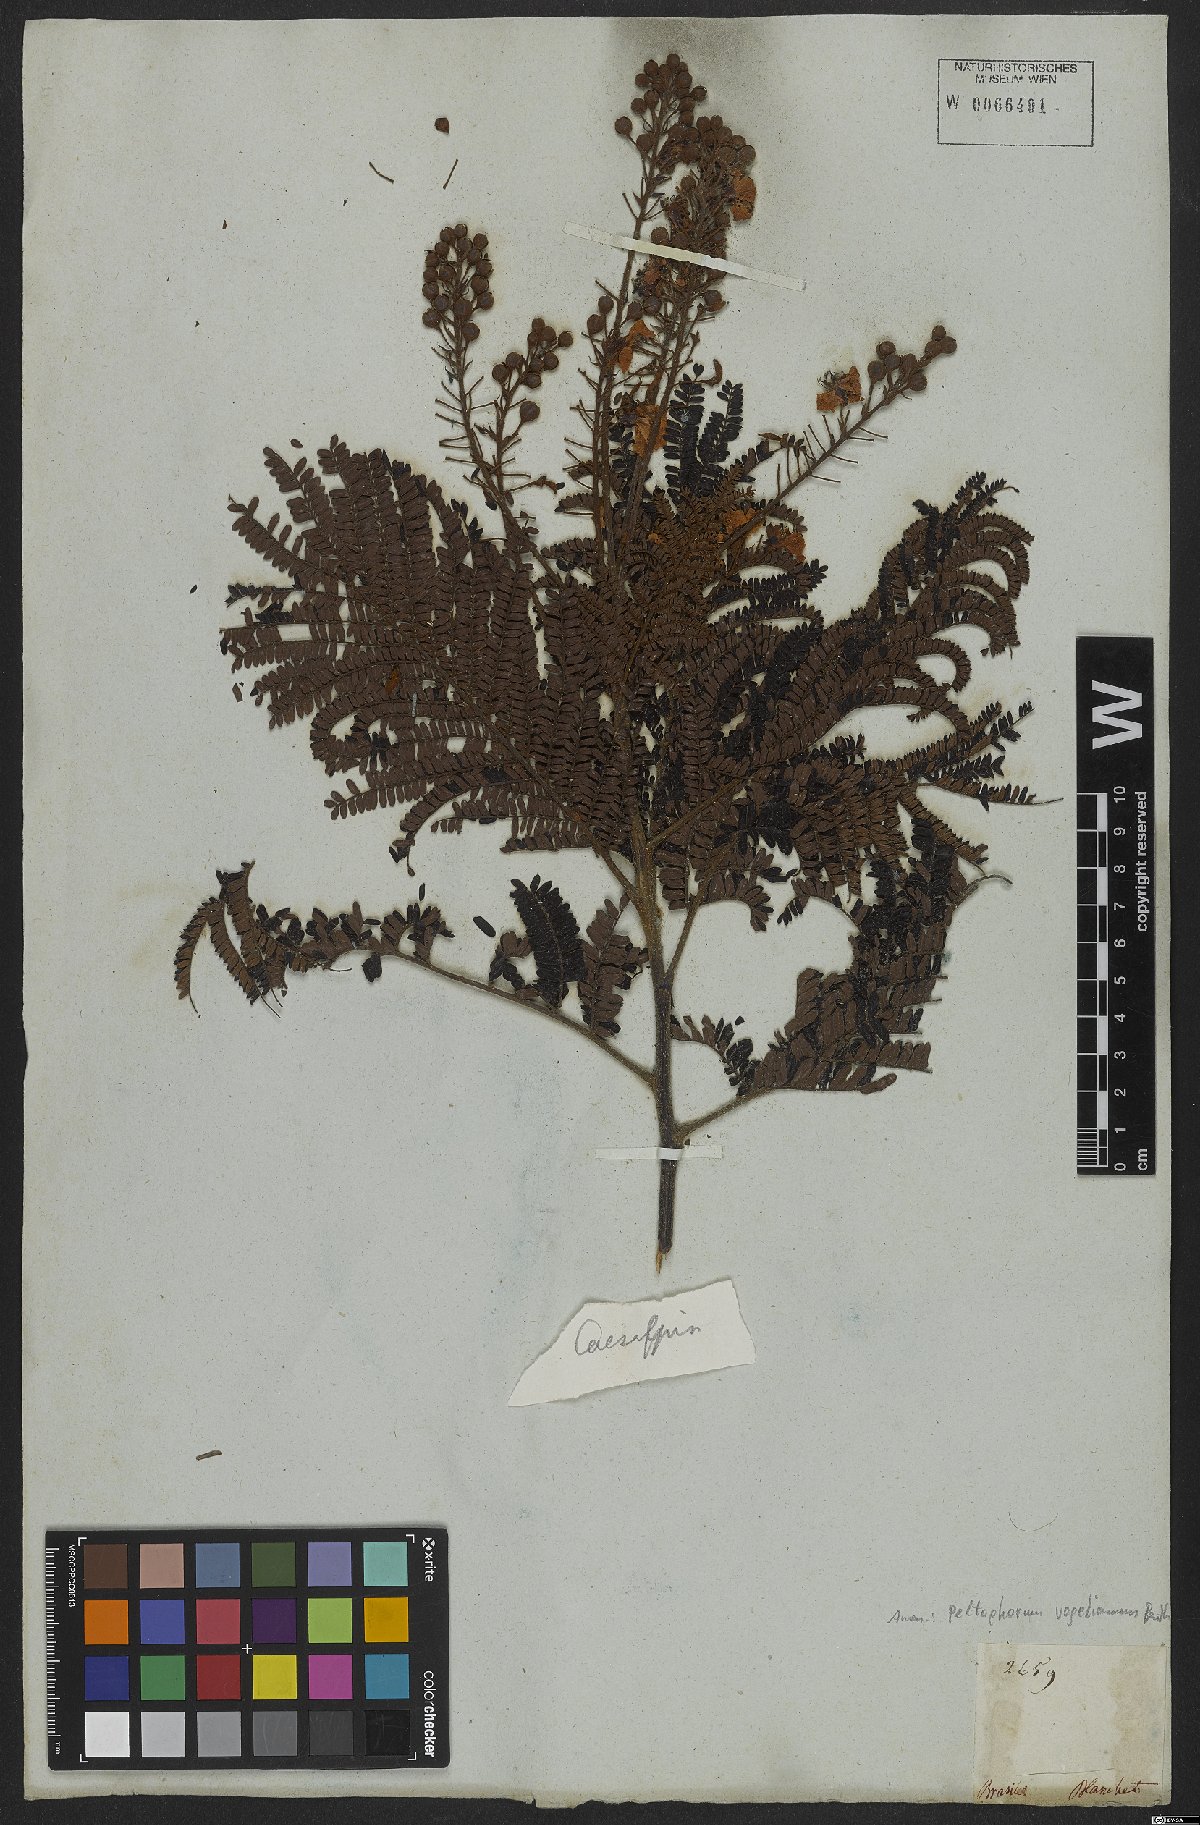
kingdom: Plantae
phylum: Tracheophyta
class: Magnoliopsida
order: Fabales
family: Fabaceae
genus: Peltophorum
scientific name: Peltophorum dubium
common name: Horsebush
